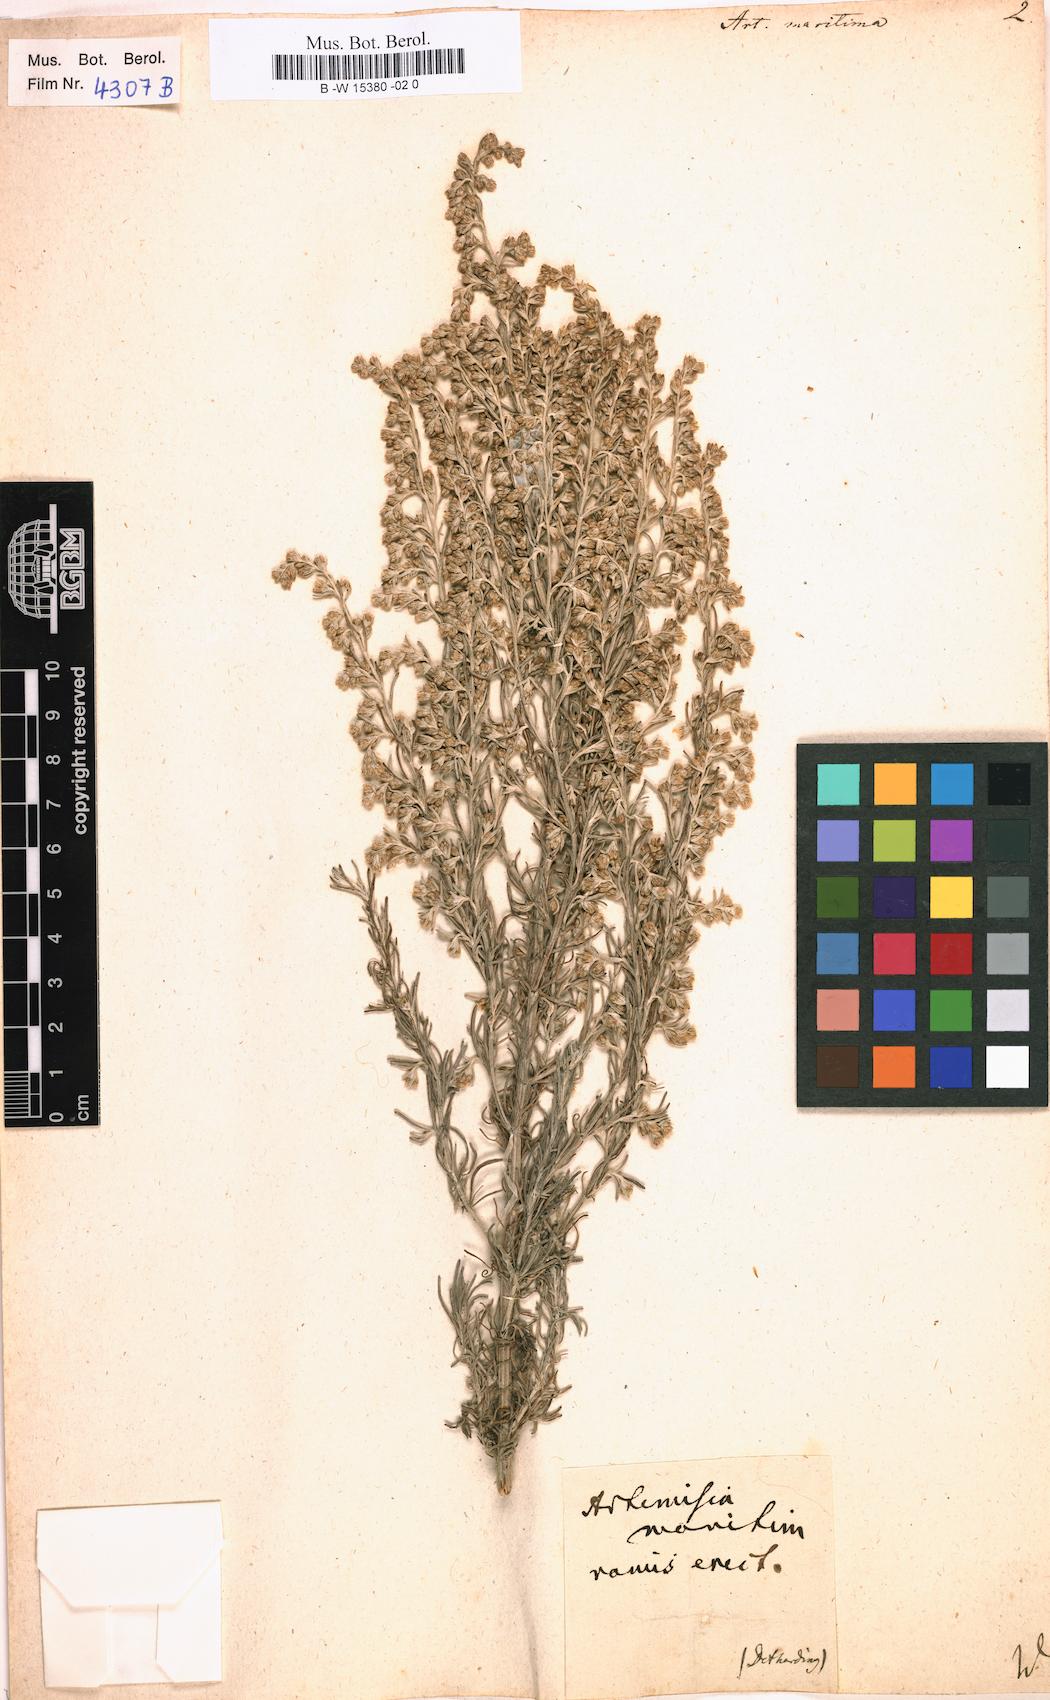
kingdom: Plantae
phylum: Tracheophyta
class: Magnoliopsida
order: Asterales
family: Asteraceae
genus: Artemisia
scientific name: Artemisia maritima
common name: Wormseed
